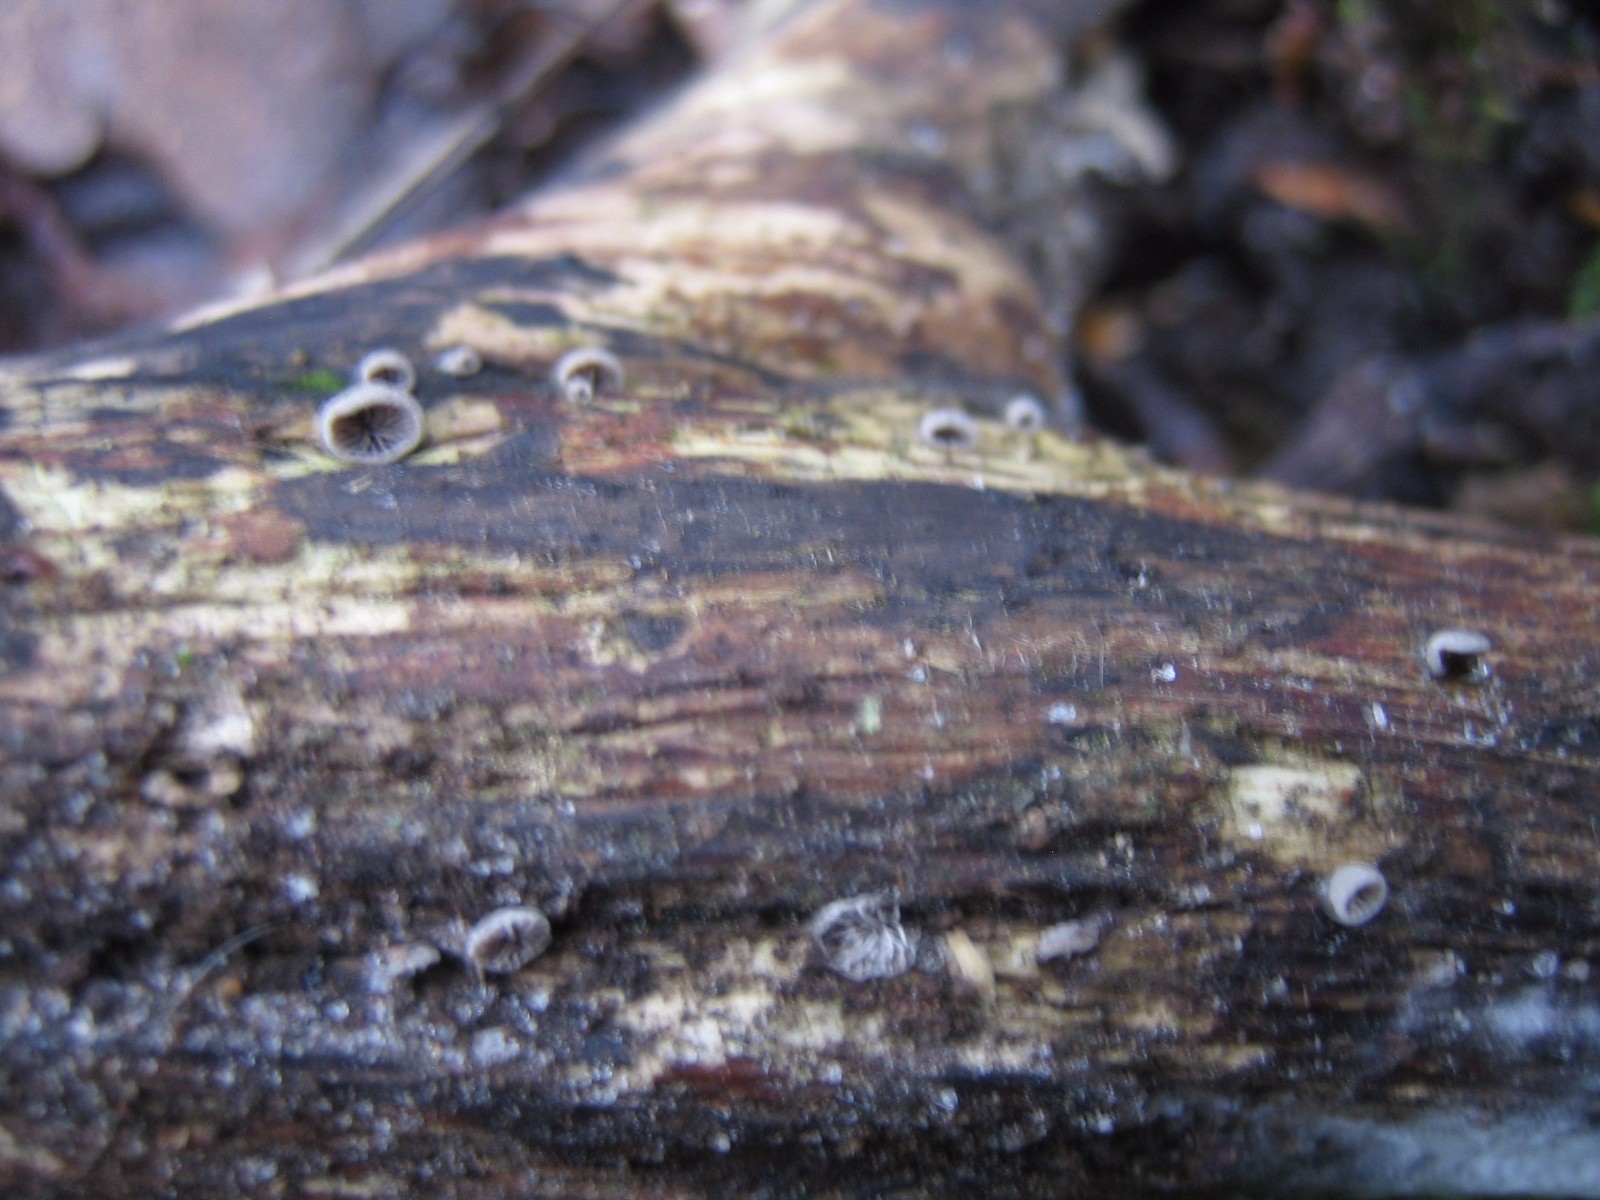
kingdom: Fungi
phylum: Basidiomycota
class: Agaricomycetes
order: Agaricales
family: Pleurotaceae
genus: Resupinatus
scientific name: Resupinatus trichotis
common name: mørkfiltet barkhat
